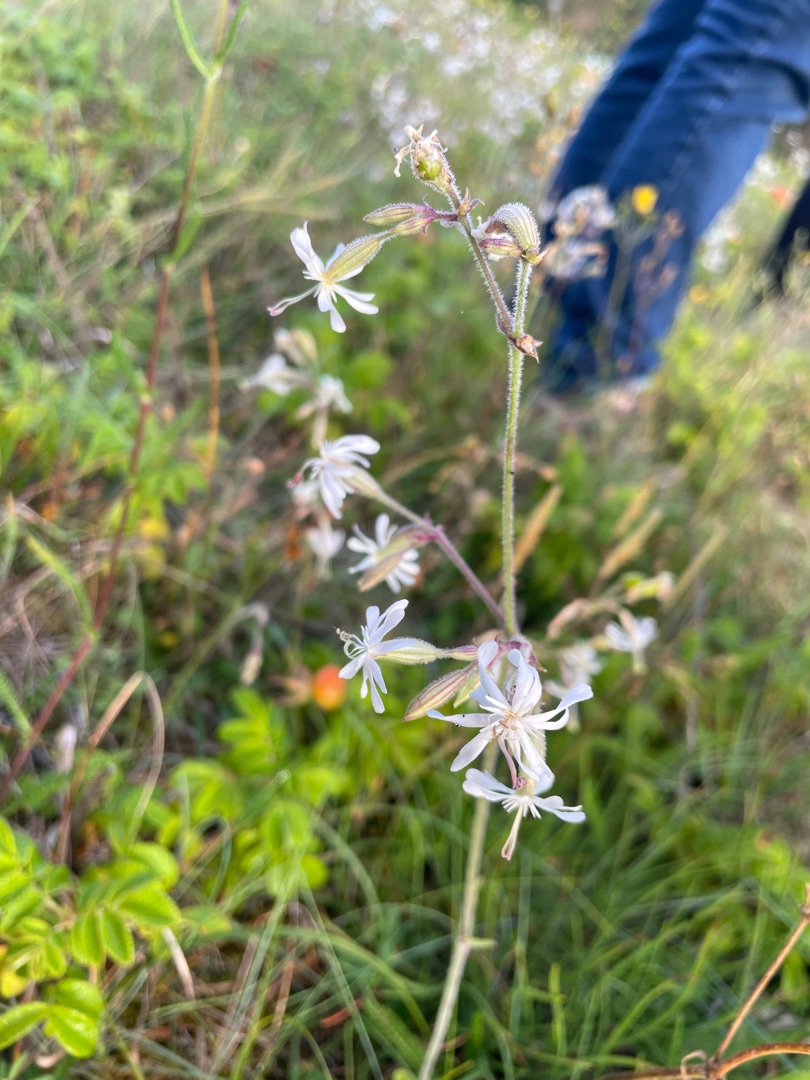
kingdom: Plantae
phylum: Tracheophyta
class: Magnoliopsida
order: Caryophyllales
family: Caryophyllaceae
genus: Silene
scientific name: Silene nutans
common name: Nikkende limurt
